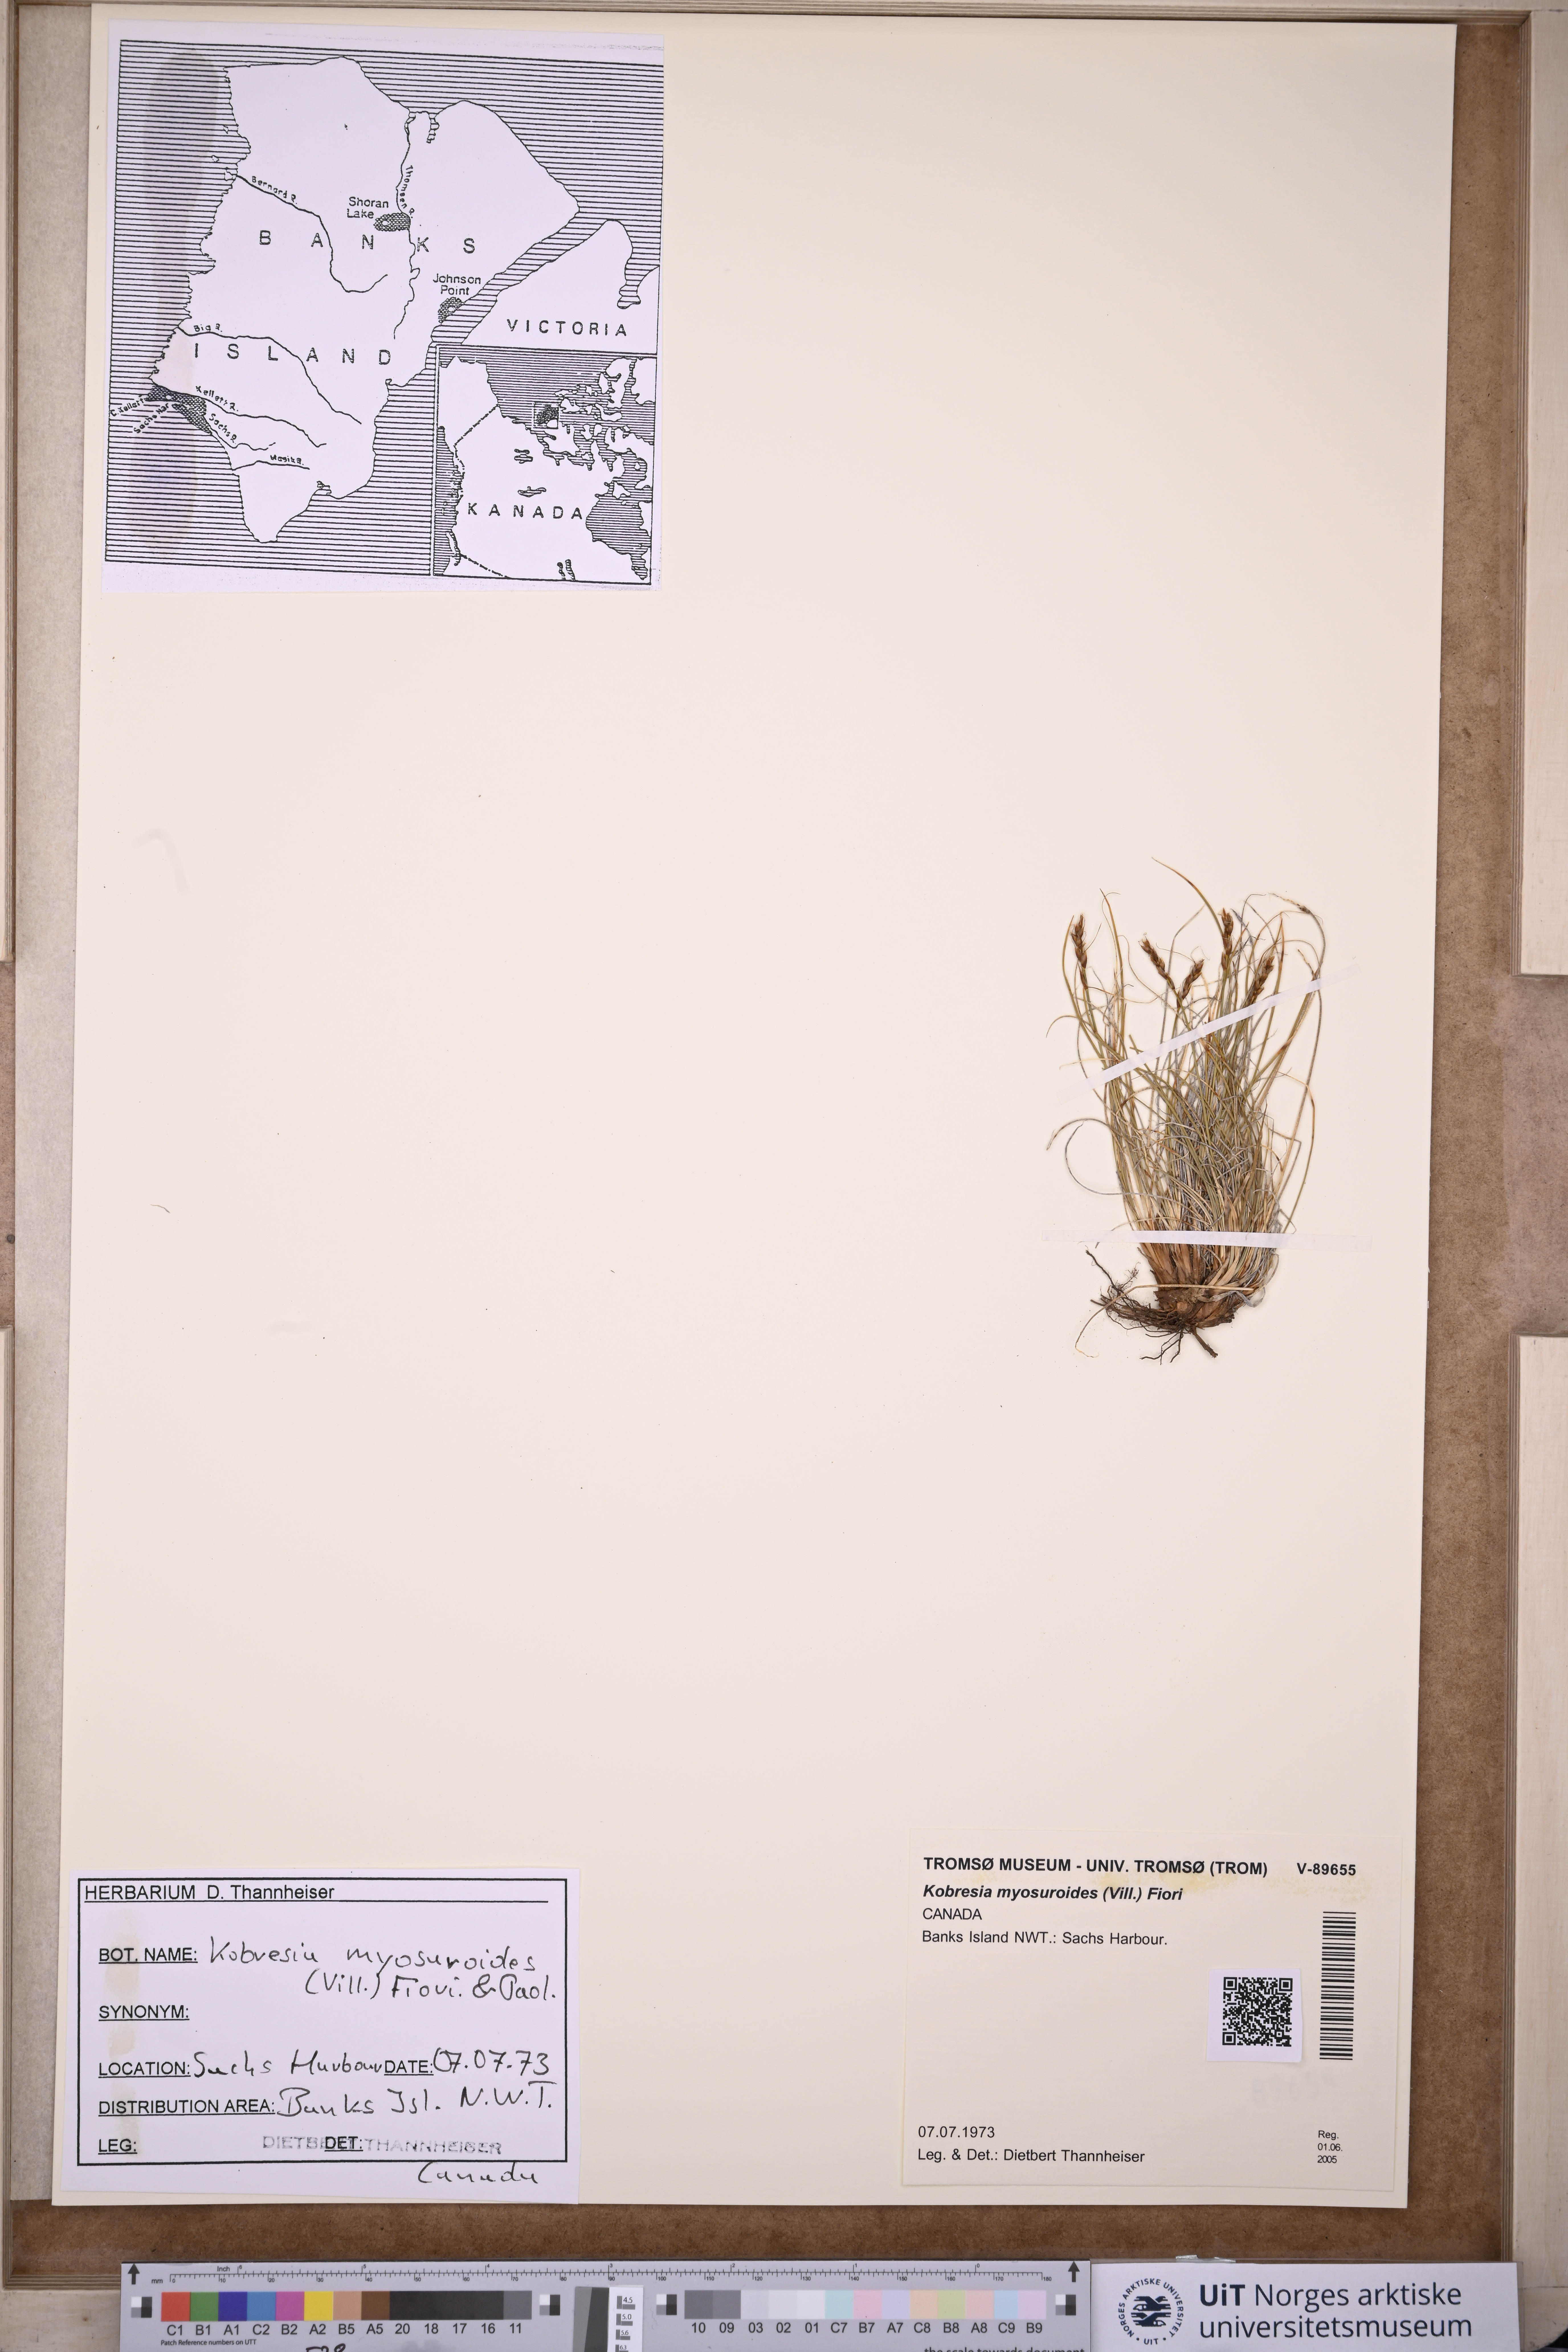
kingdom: Plantae
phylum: Tracheophyta
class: Liliopsida
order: Poales
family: Cyperaceae
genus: Carex
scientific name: Carex myosuroides
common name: Bellard's bog sedge
